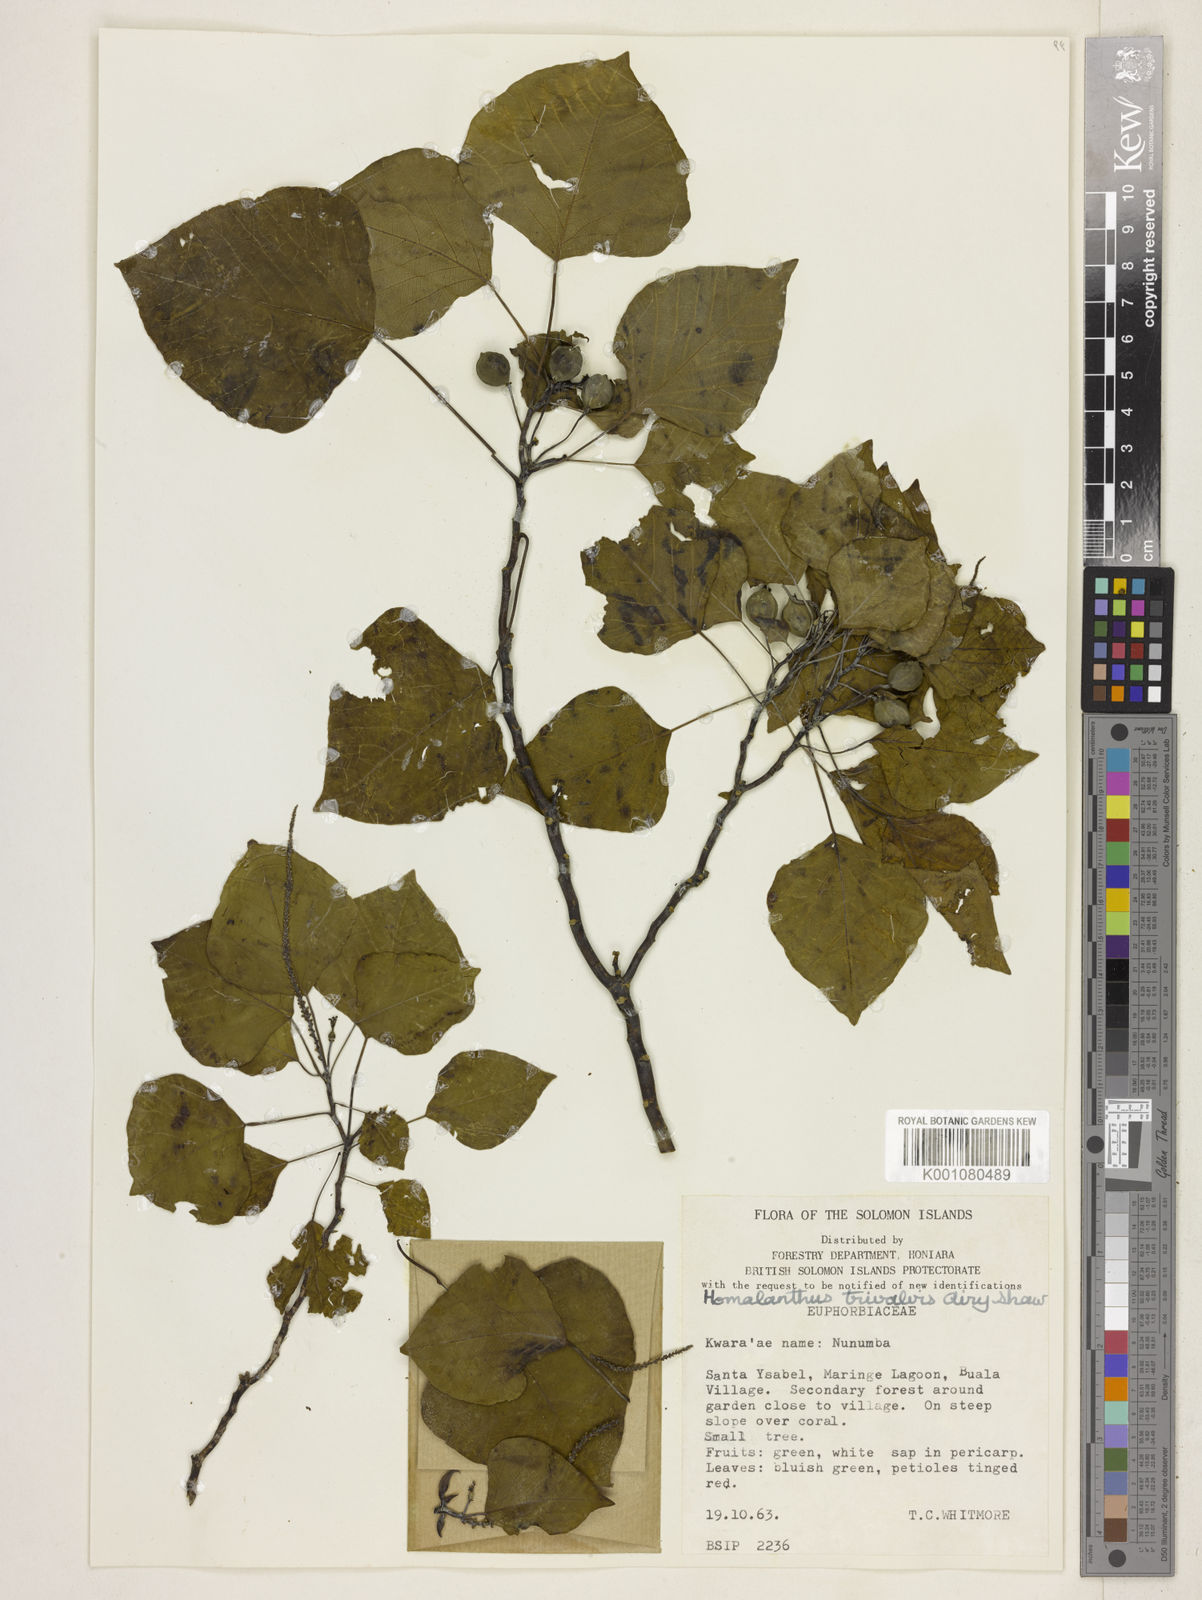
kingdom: Plantae
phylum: Tracheophyta
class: Magnoliopsida
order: Malpighiales
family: Euphorbiaceae
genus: Homalanthus
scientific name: Homalanthus trivalvis
